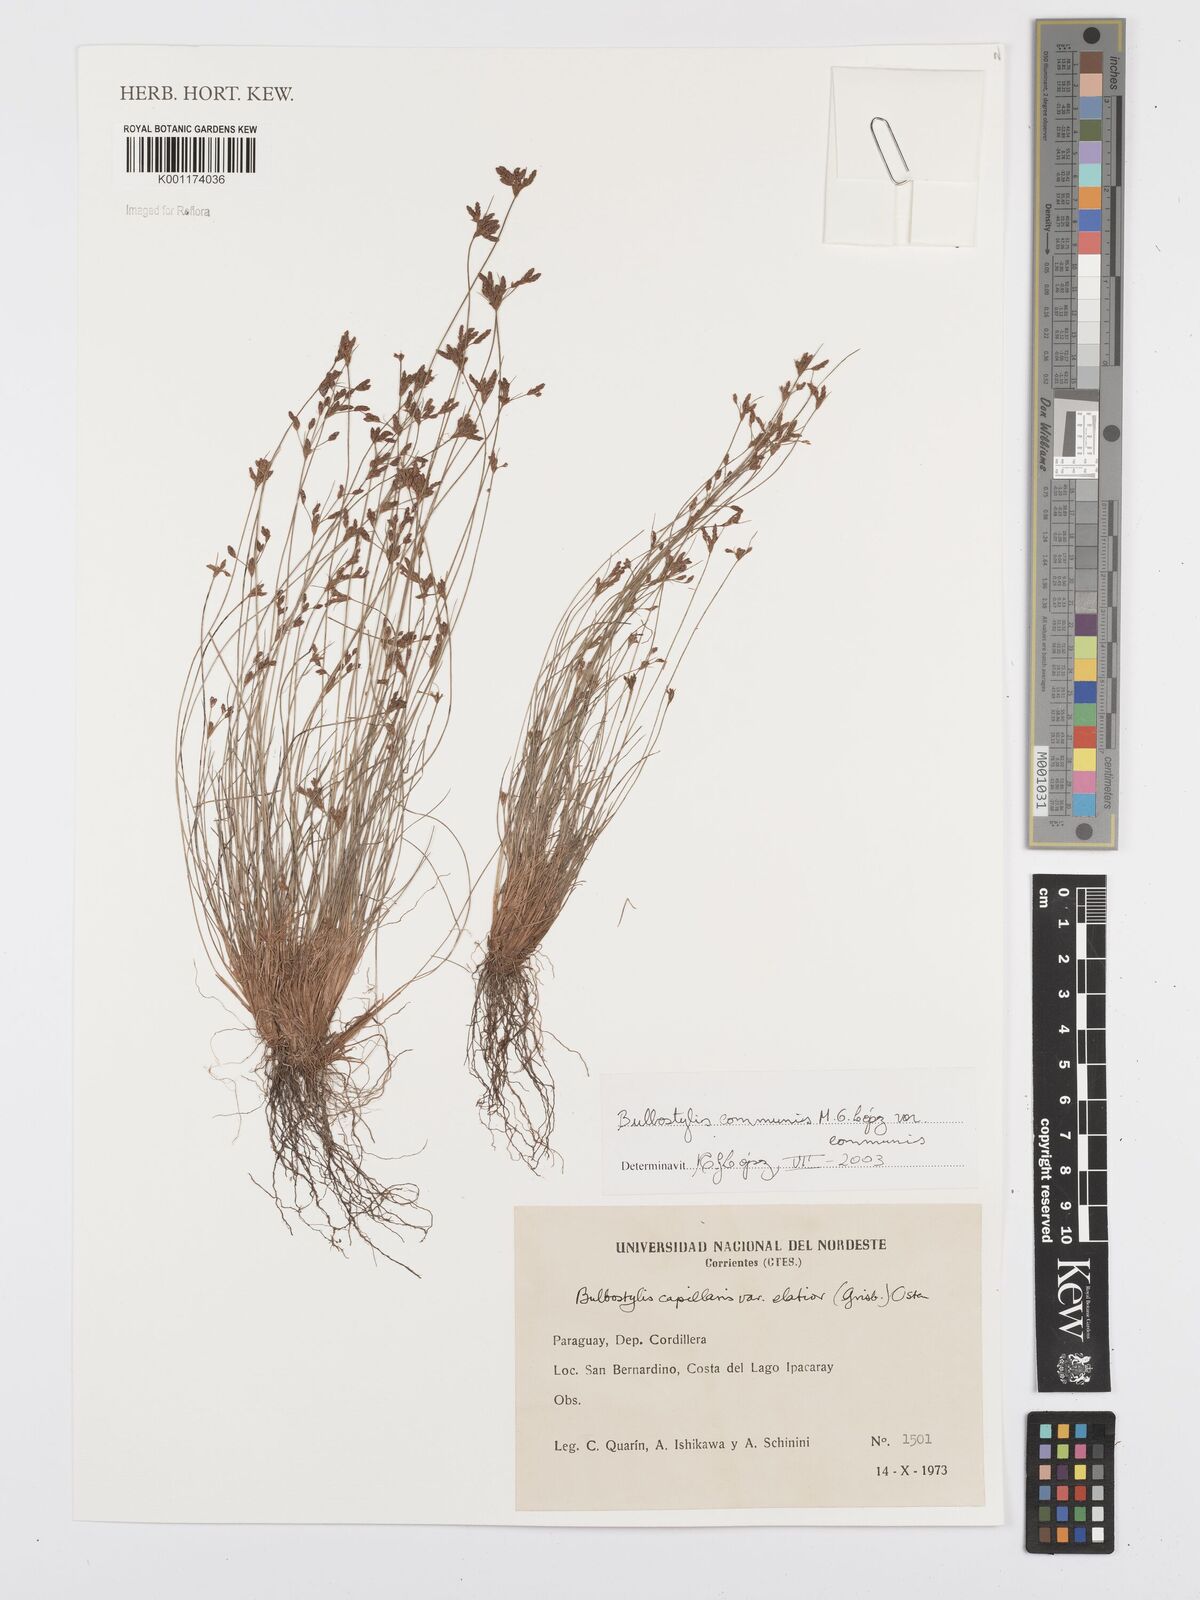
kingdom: Plantae
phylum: Tracheophyta
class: Liliopsida
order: Poales
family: Cyperaceae
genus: Bulbostylis
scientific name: Bulbostylis communis
